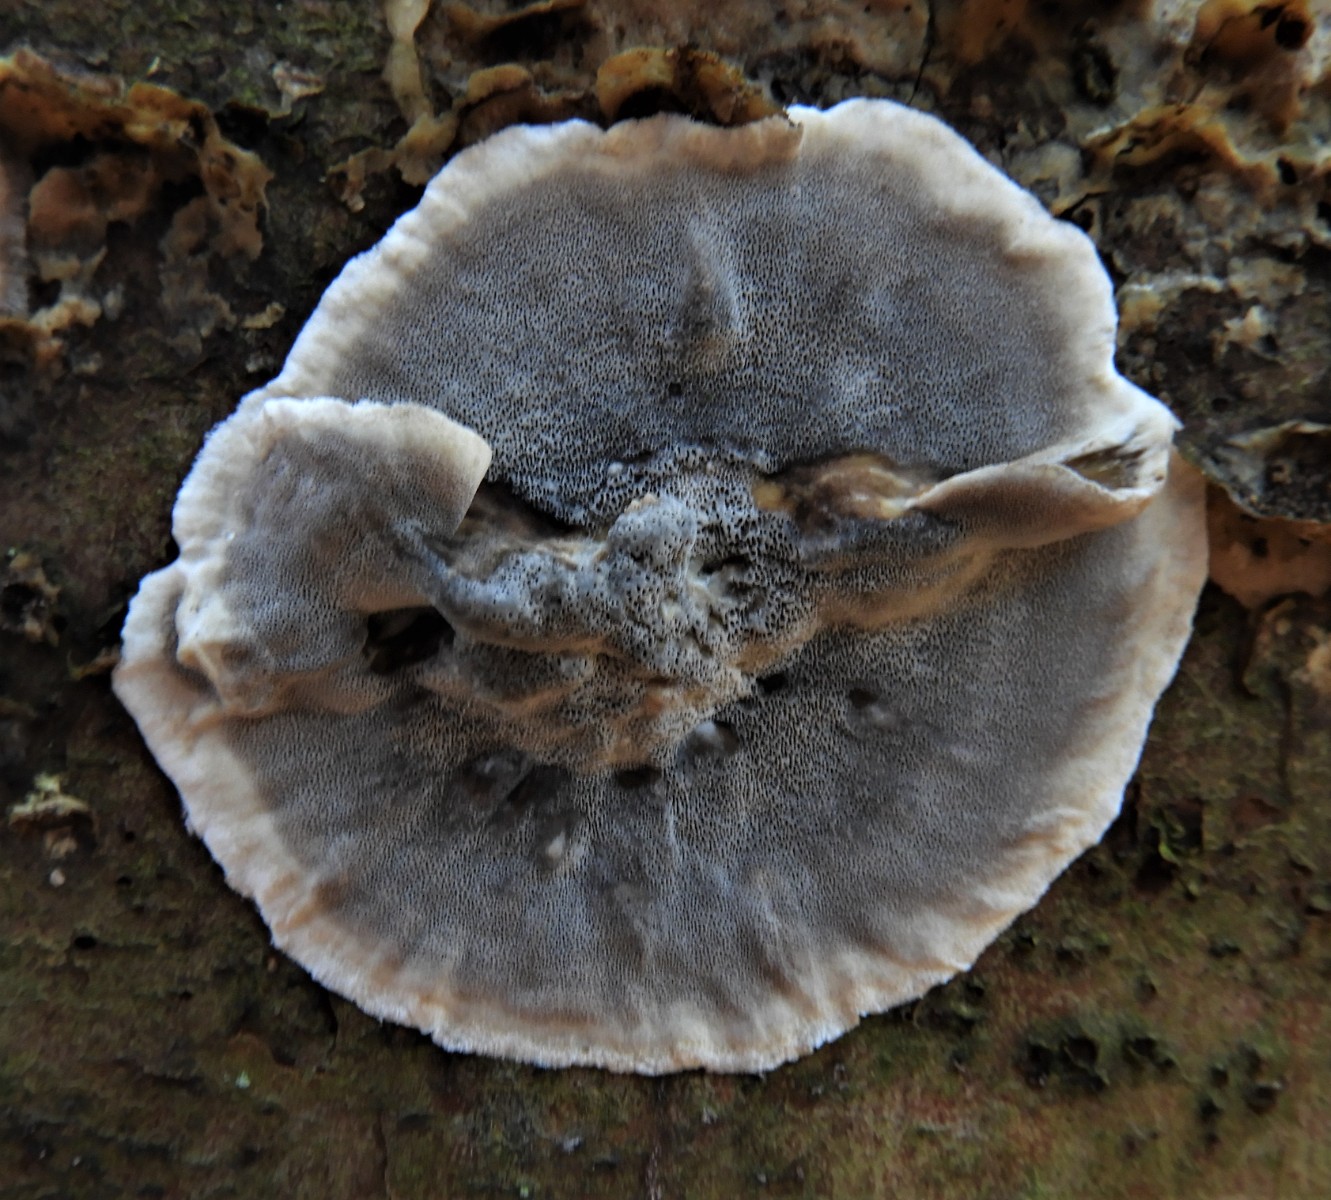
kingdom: Fungi
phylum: Basidiomycota
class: Agaricomycetes
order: Polyporales
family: Phanerochaetaceae
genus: Bjerkandera
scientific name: Bjerkandera adusta
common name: sveden sodporesvamp
